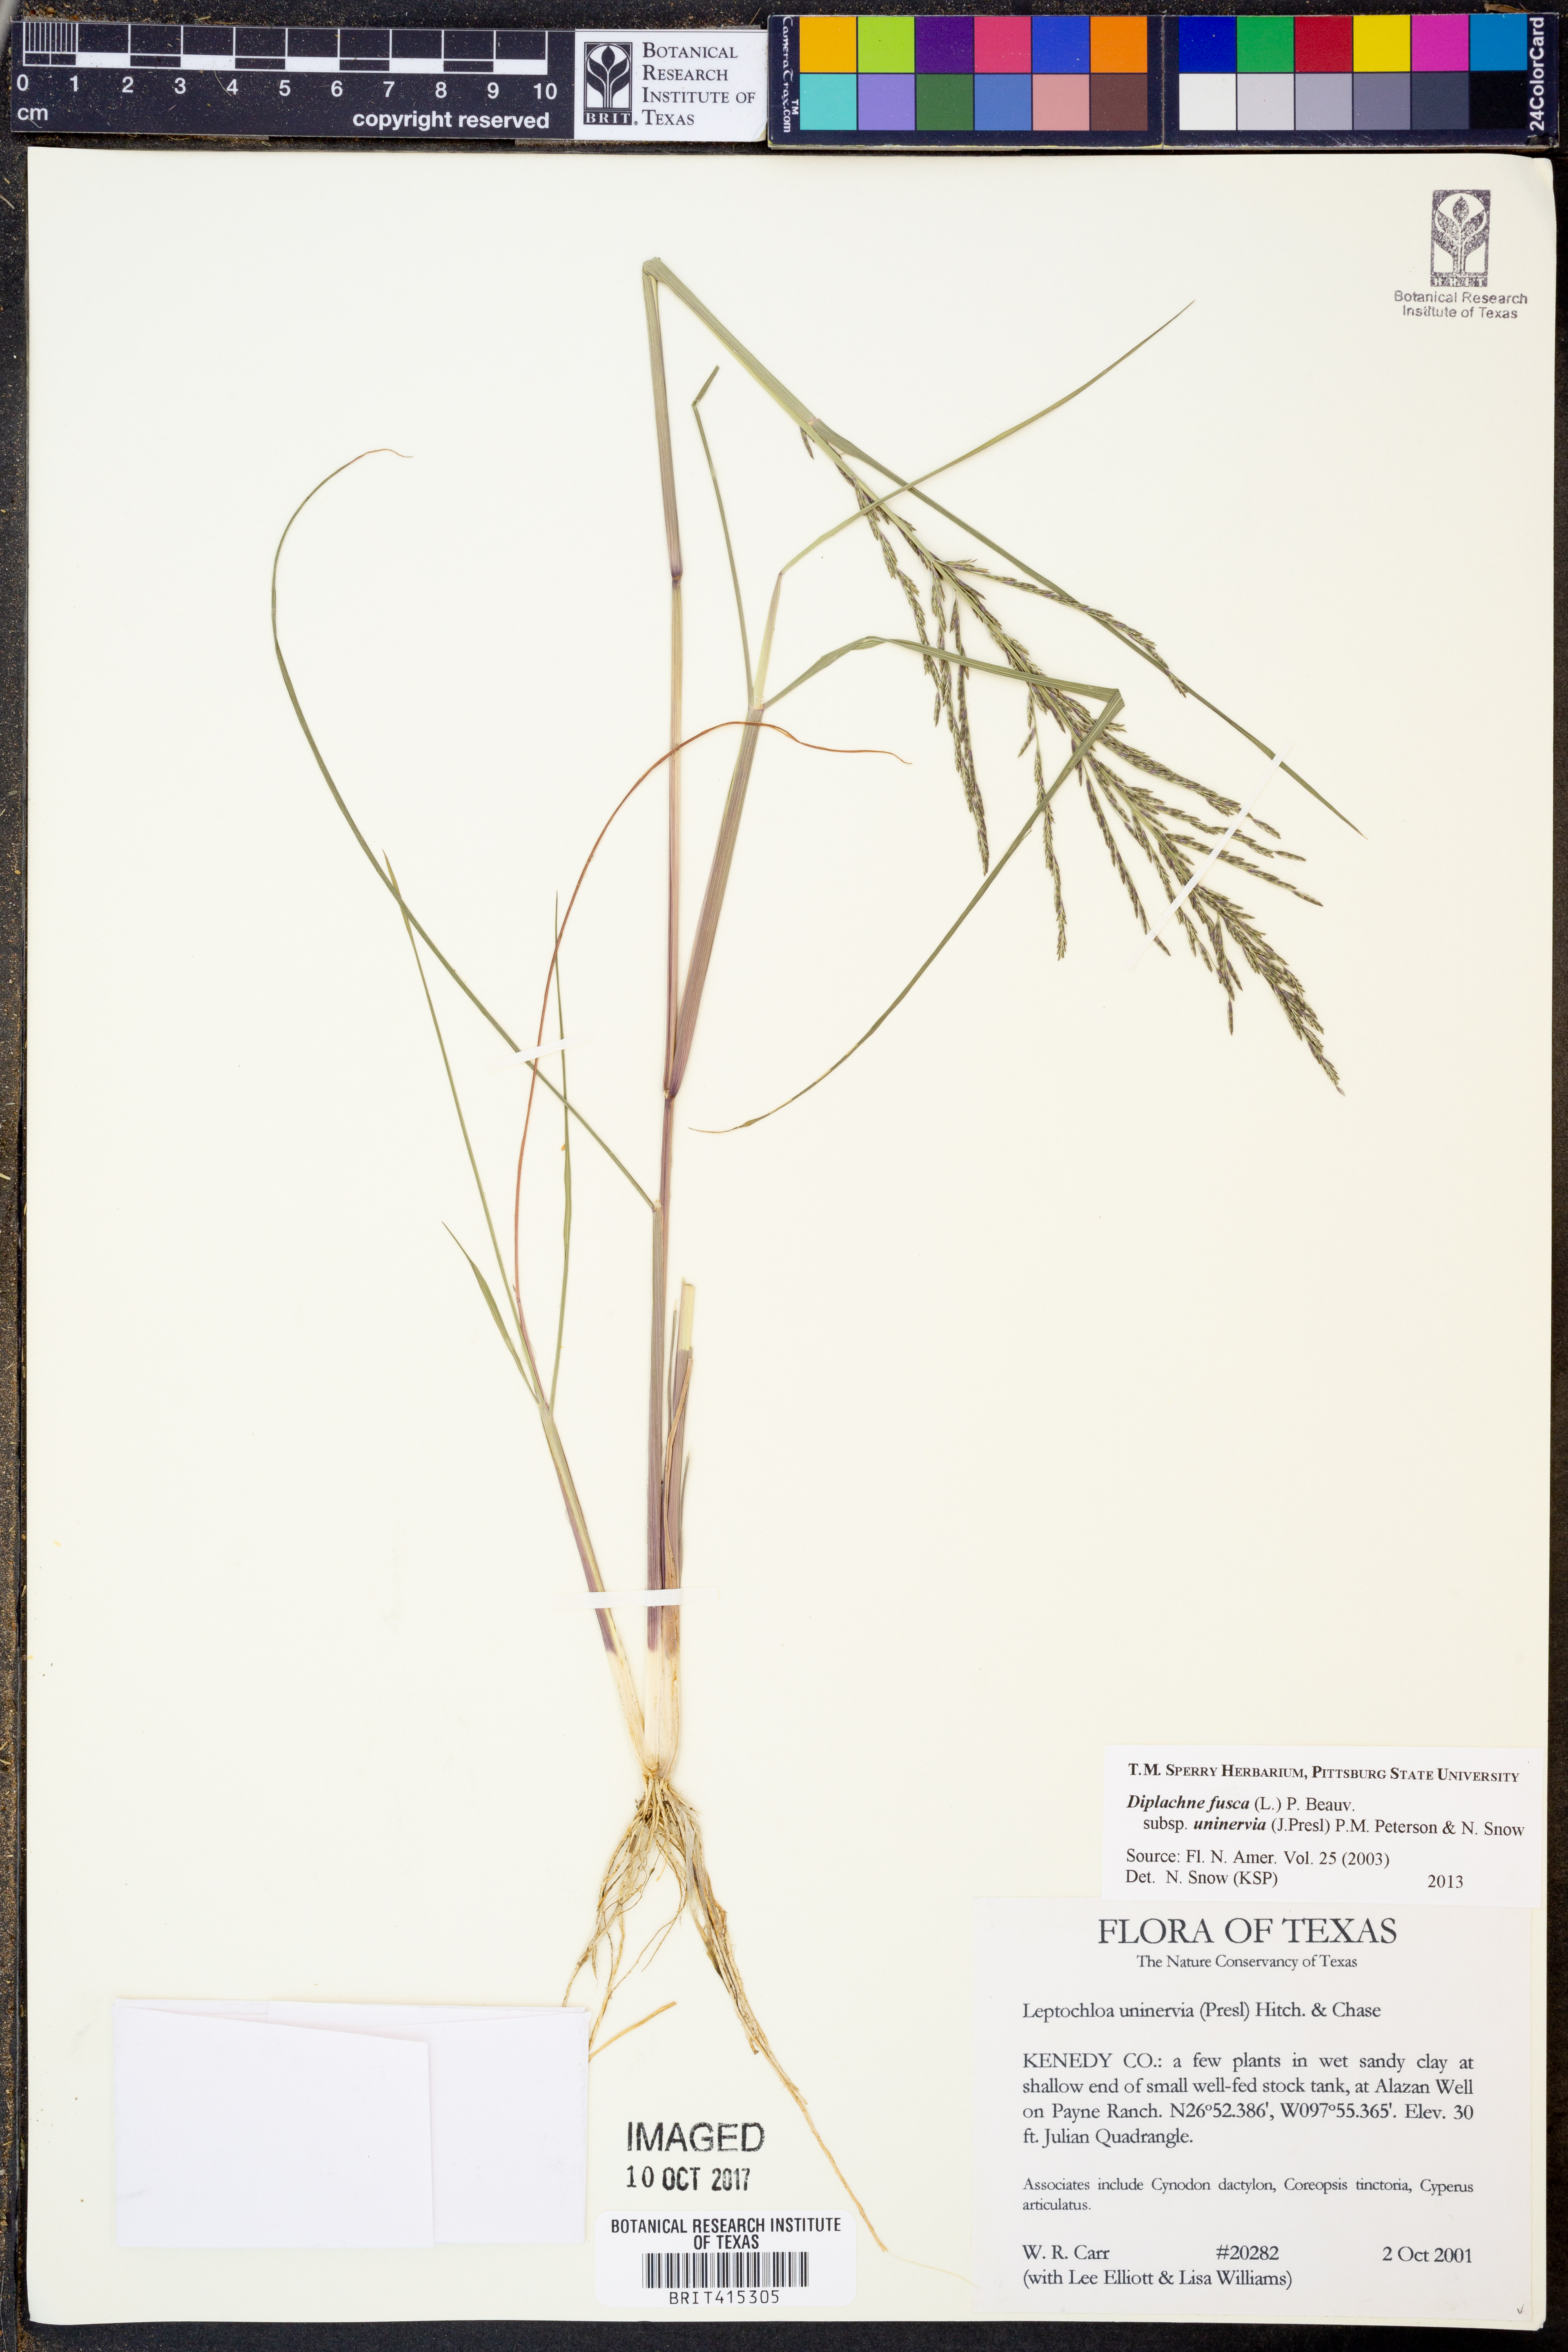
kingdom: Plantae
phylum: Tracheophyta
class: Liliopsida
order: Poales
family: Poaceae
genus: Diplachne
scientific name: Diplachne fusca
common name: Brown beetle grass
